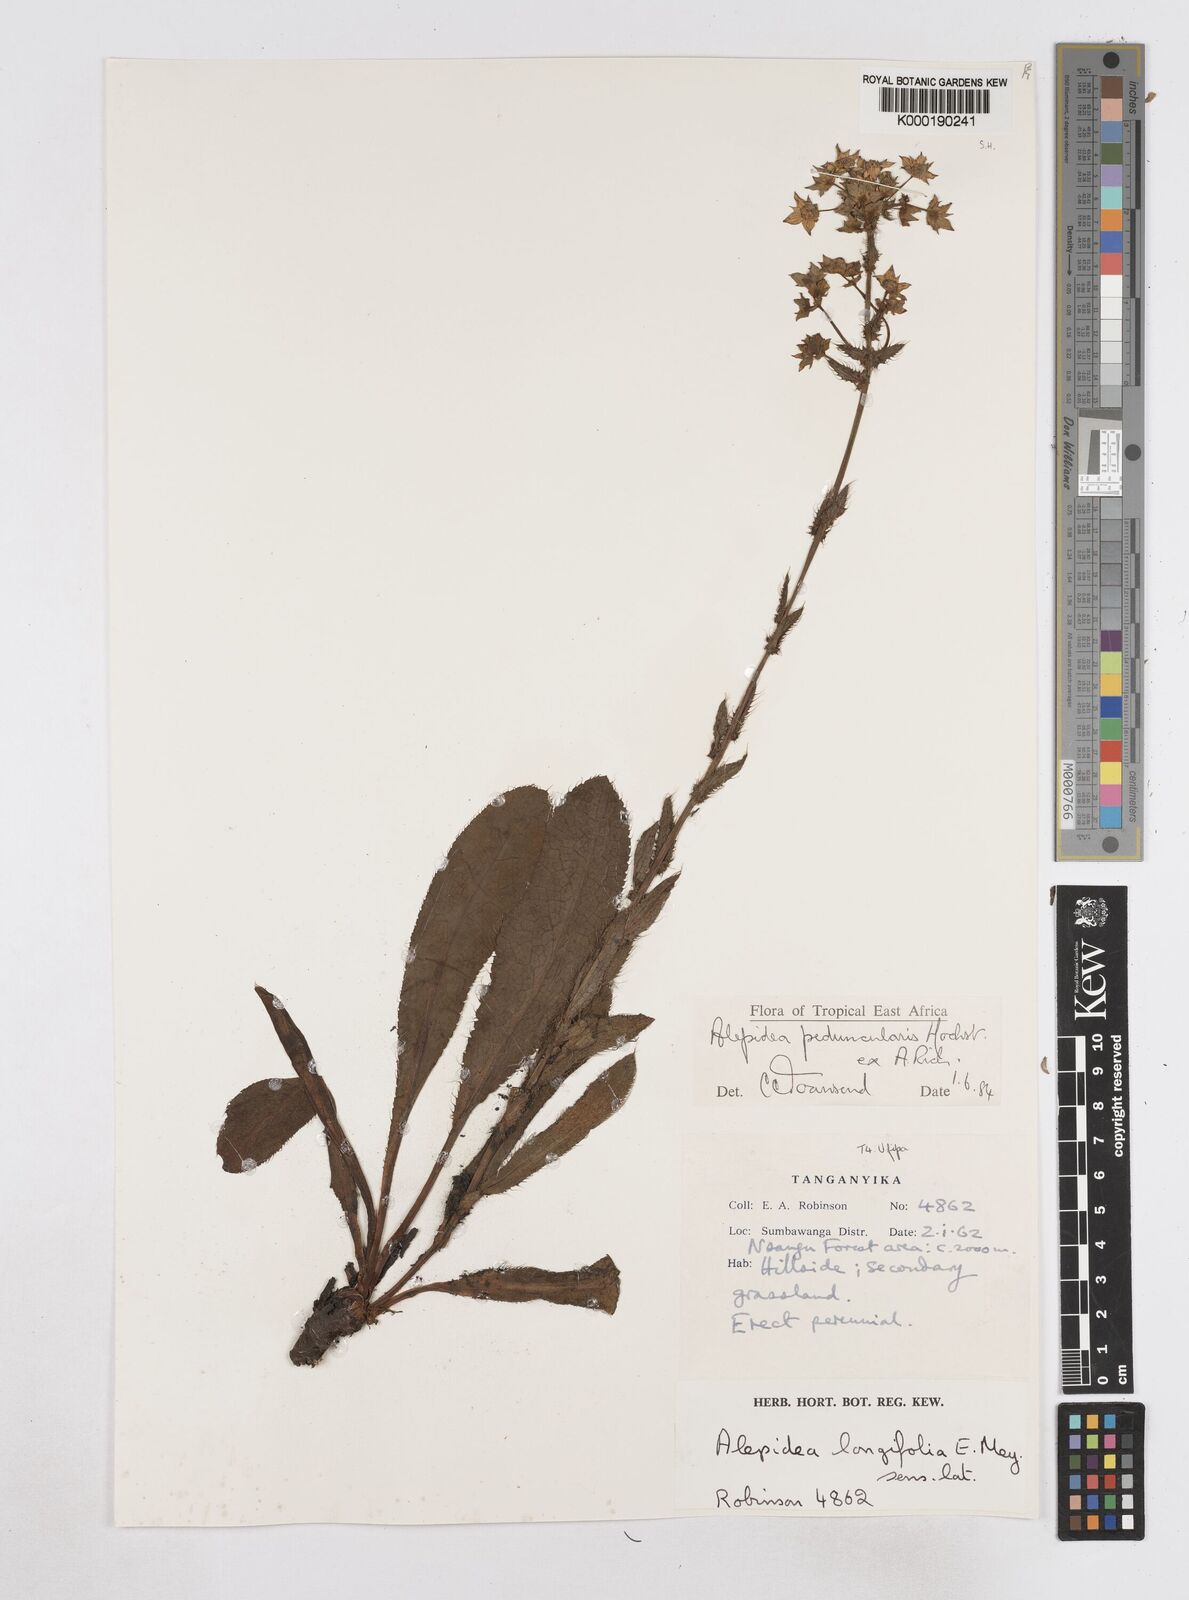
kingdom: Plantae
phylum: Tracheophyta
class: Magnoliopsida
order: Apiales
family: Apiaceae
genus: Alepidea
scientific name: Alepidea peduncularis
